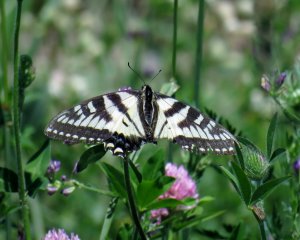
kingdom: Animalia
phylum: Arthropoda
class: Insecta
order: Lepidoptera
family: Papilionidae
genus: Pterourus
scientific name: Pterourus canadensis
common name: Canadian Tiger Swallowtail
